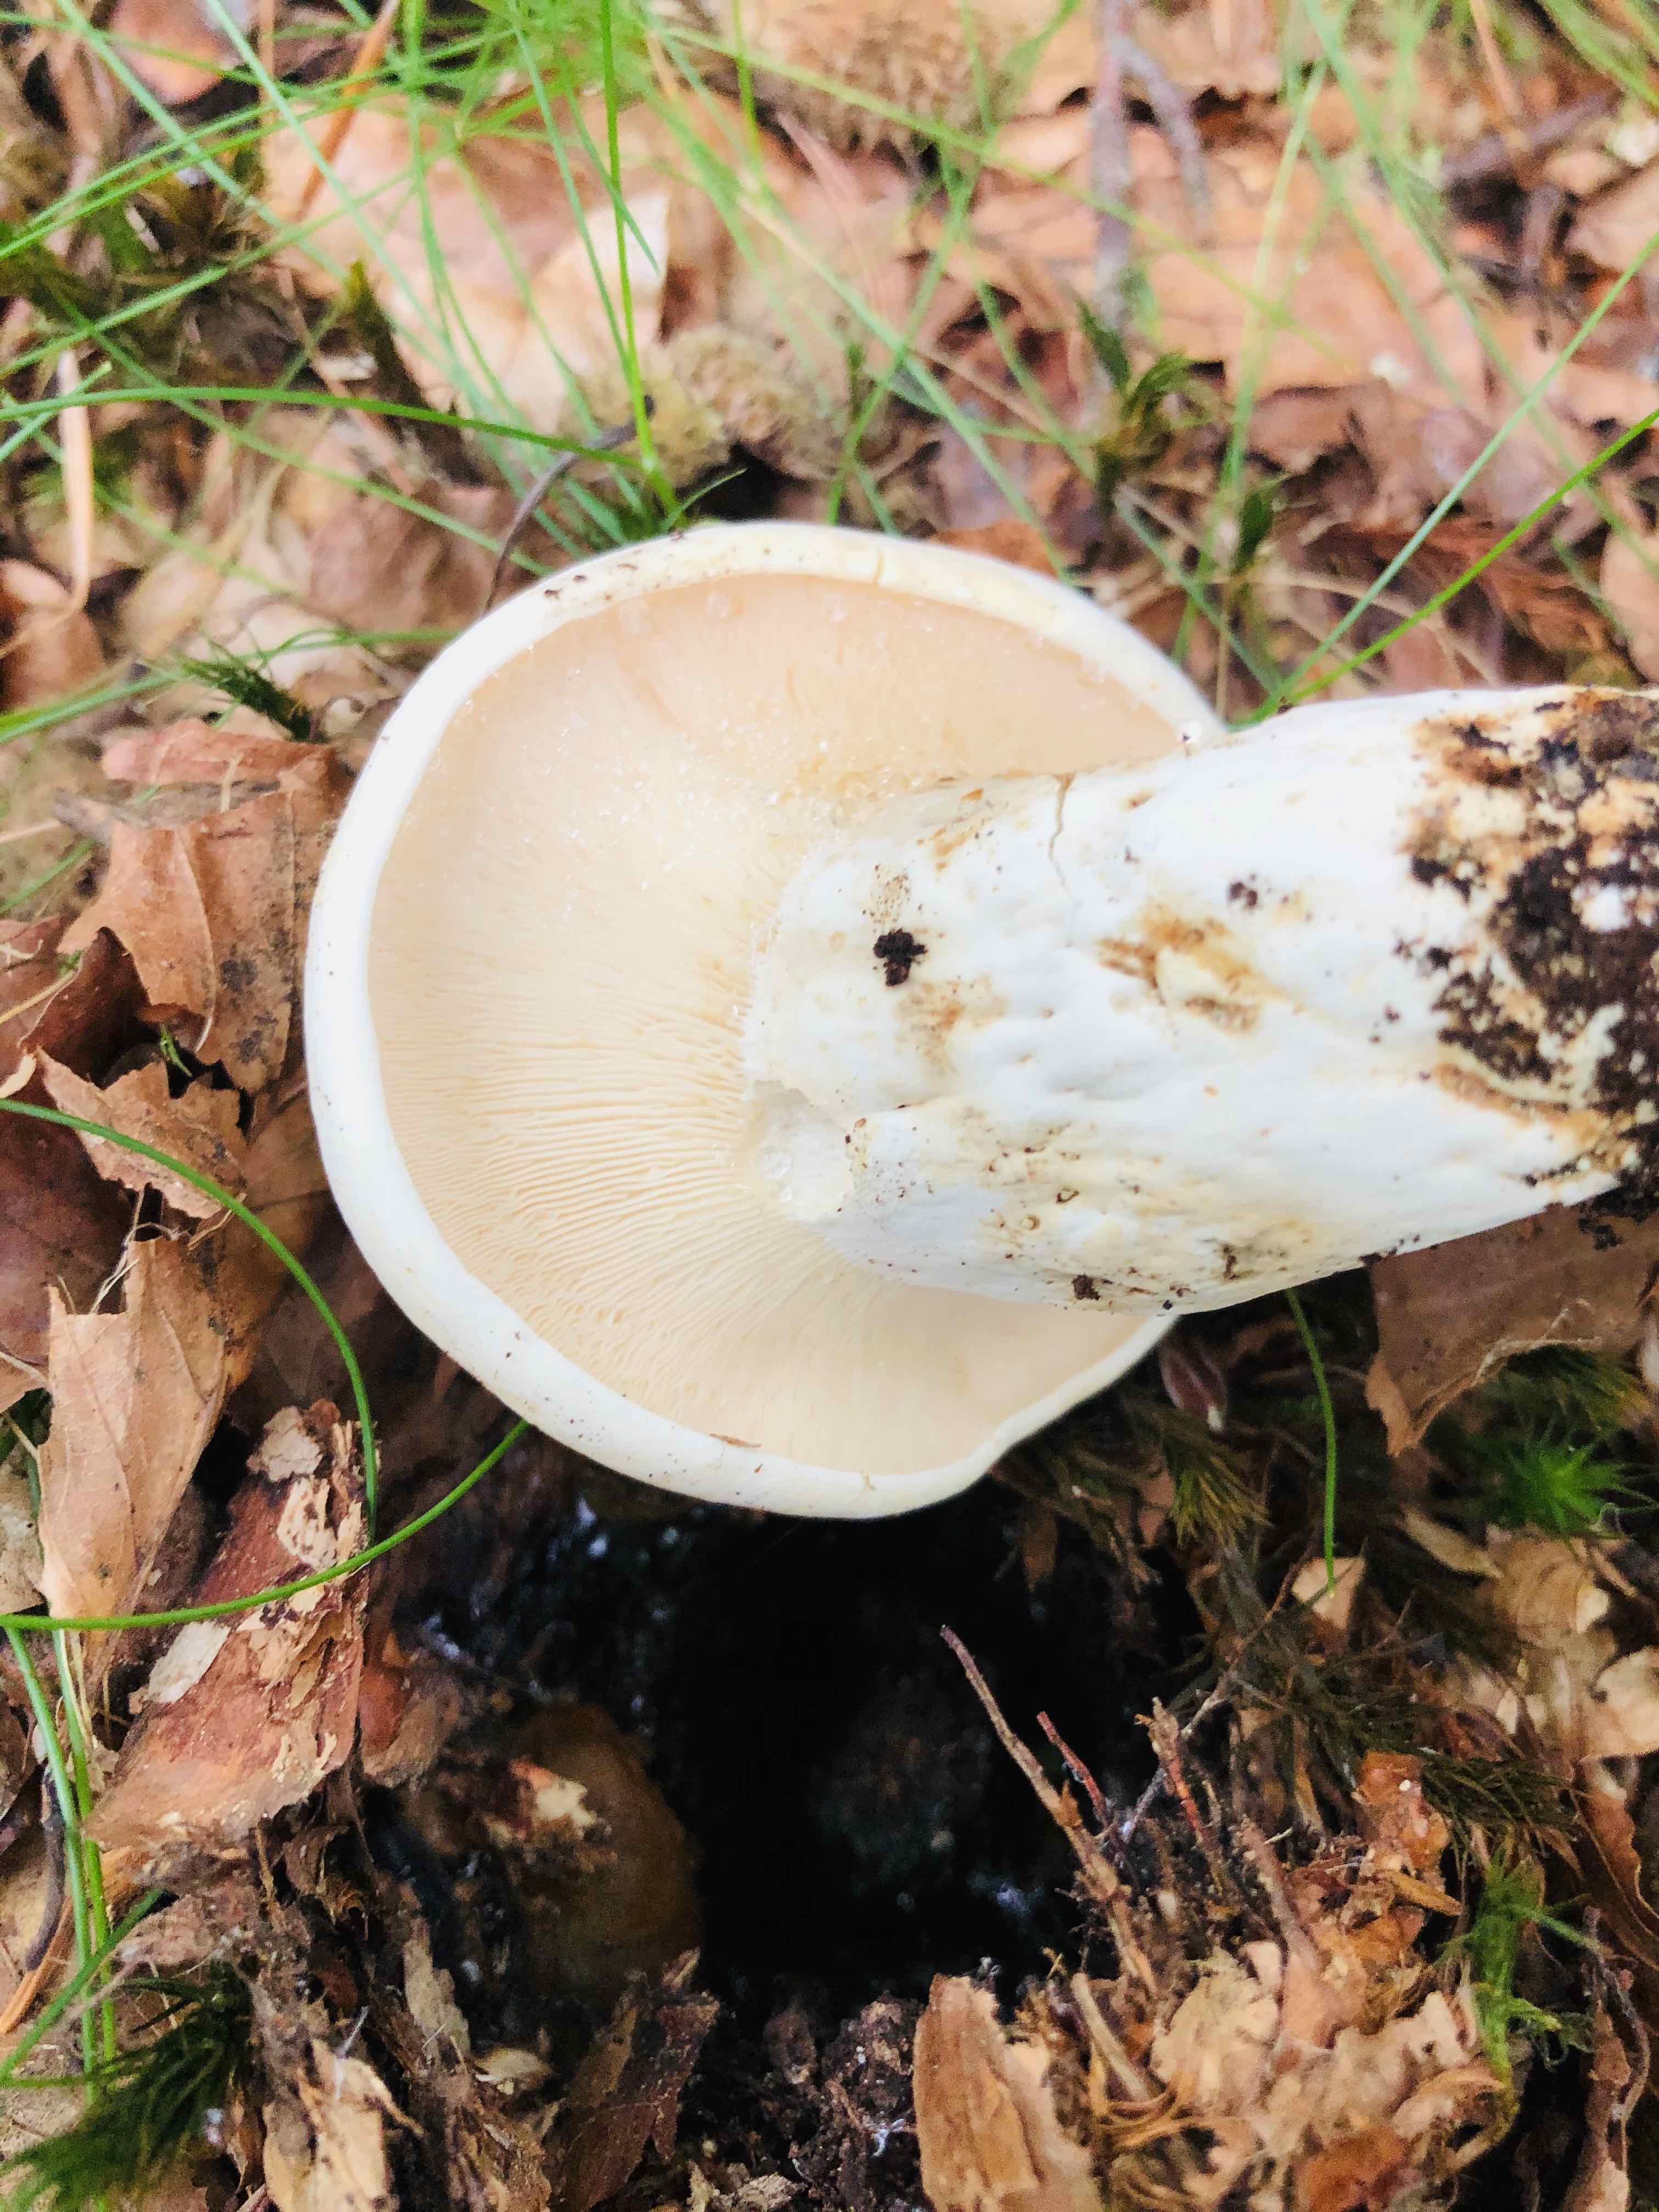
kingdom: Fungi
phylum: Basidiomycota
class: Agaricomycetes
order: Russulales
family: Russulaceae
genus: Lactifluus
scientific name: Lactifluus piperatus
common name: peber-mælkehat
